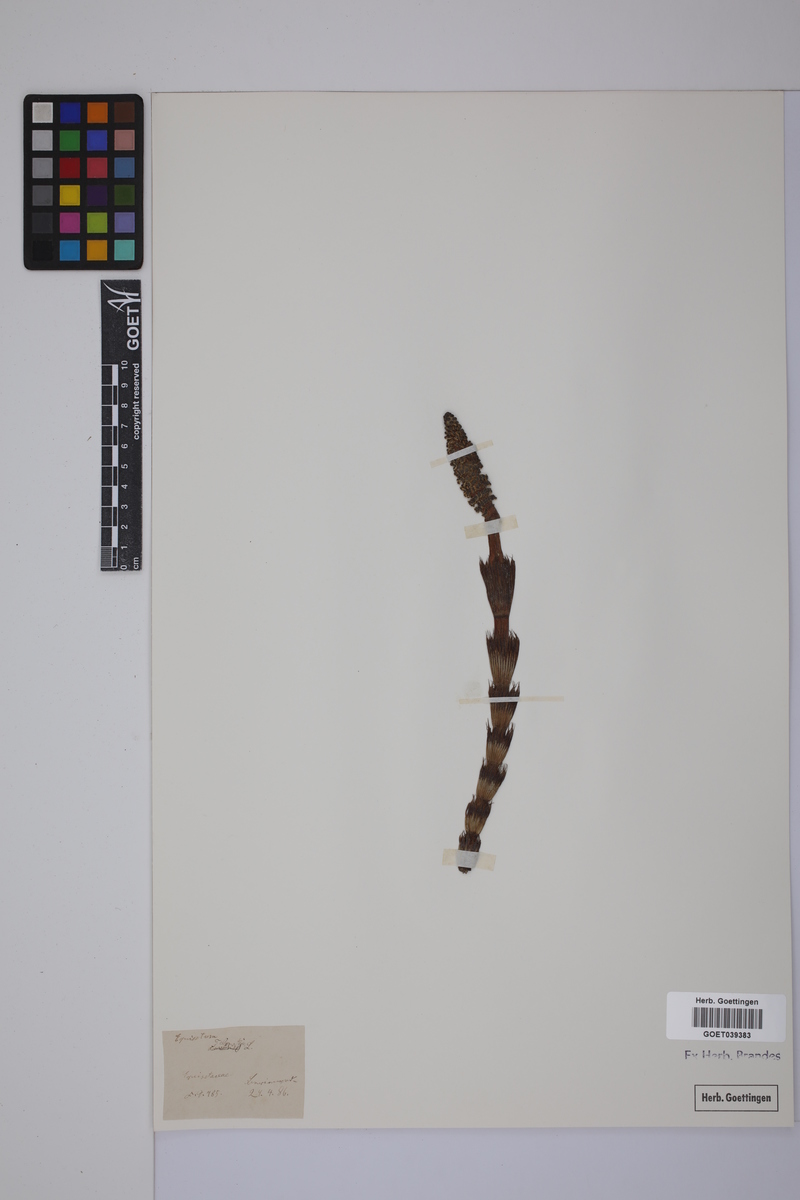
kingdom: Plantae
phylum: Tracheophyta
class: Polypodiopsida
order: Equisetales
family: Equisetaceae
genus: Equisetum
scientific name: Equisetum telmateia
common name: Great horsetail
